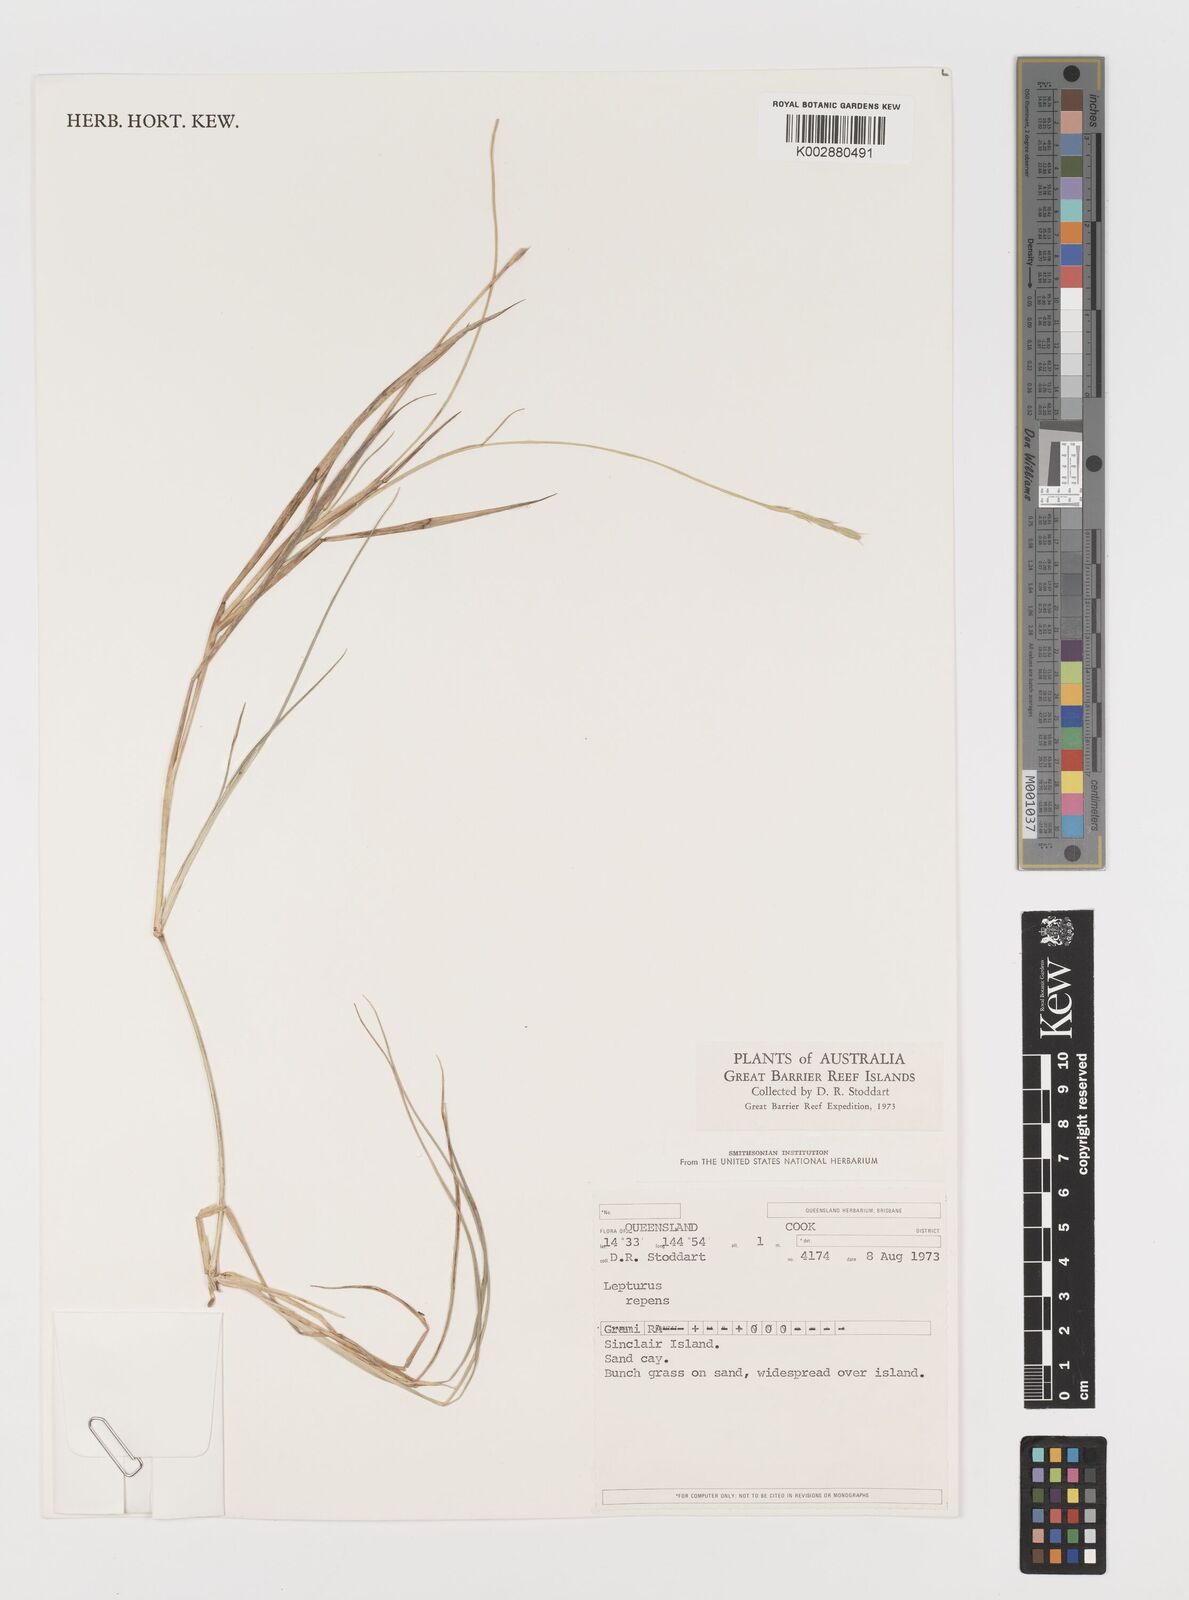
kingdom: Plantae
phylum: Tracheophyta
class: Liliopsida
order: Poales
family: Poaceae
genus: Lepturus
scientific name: Lepturus repens
